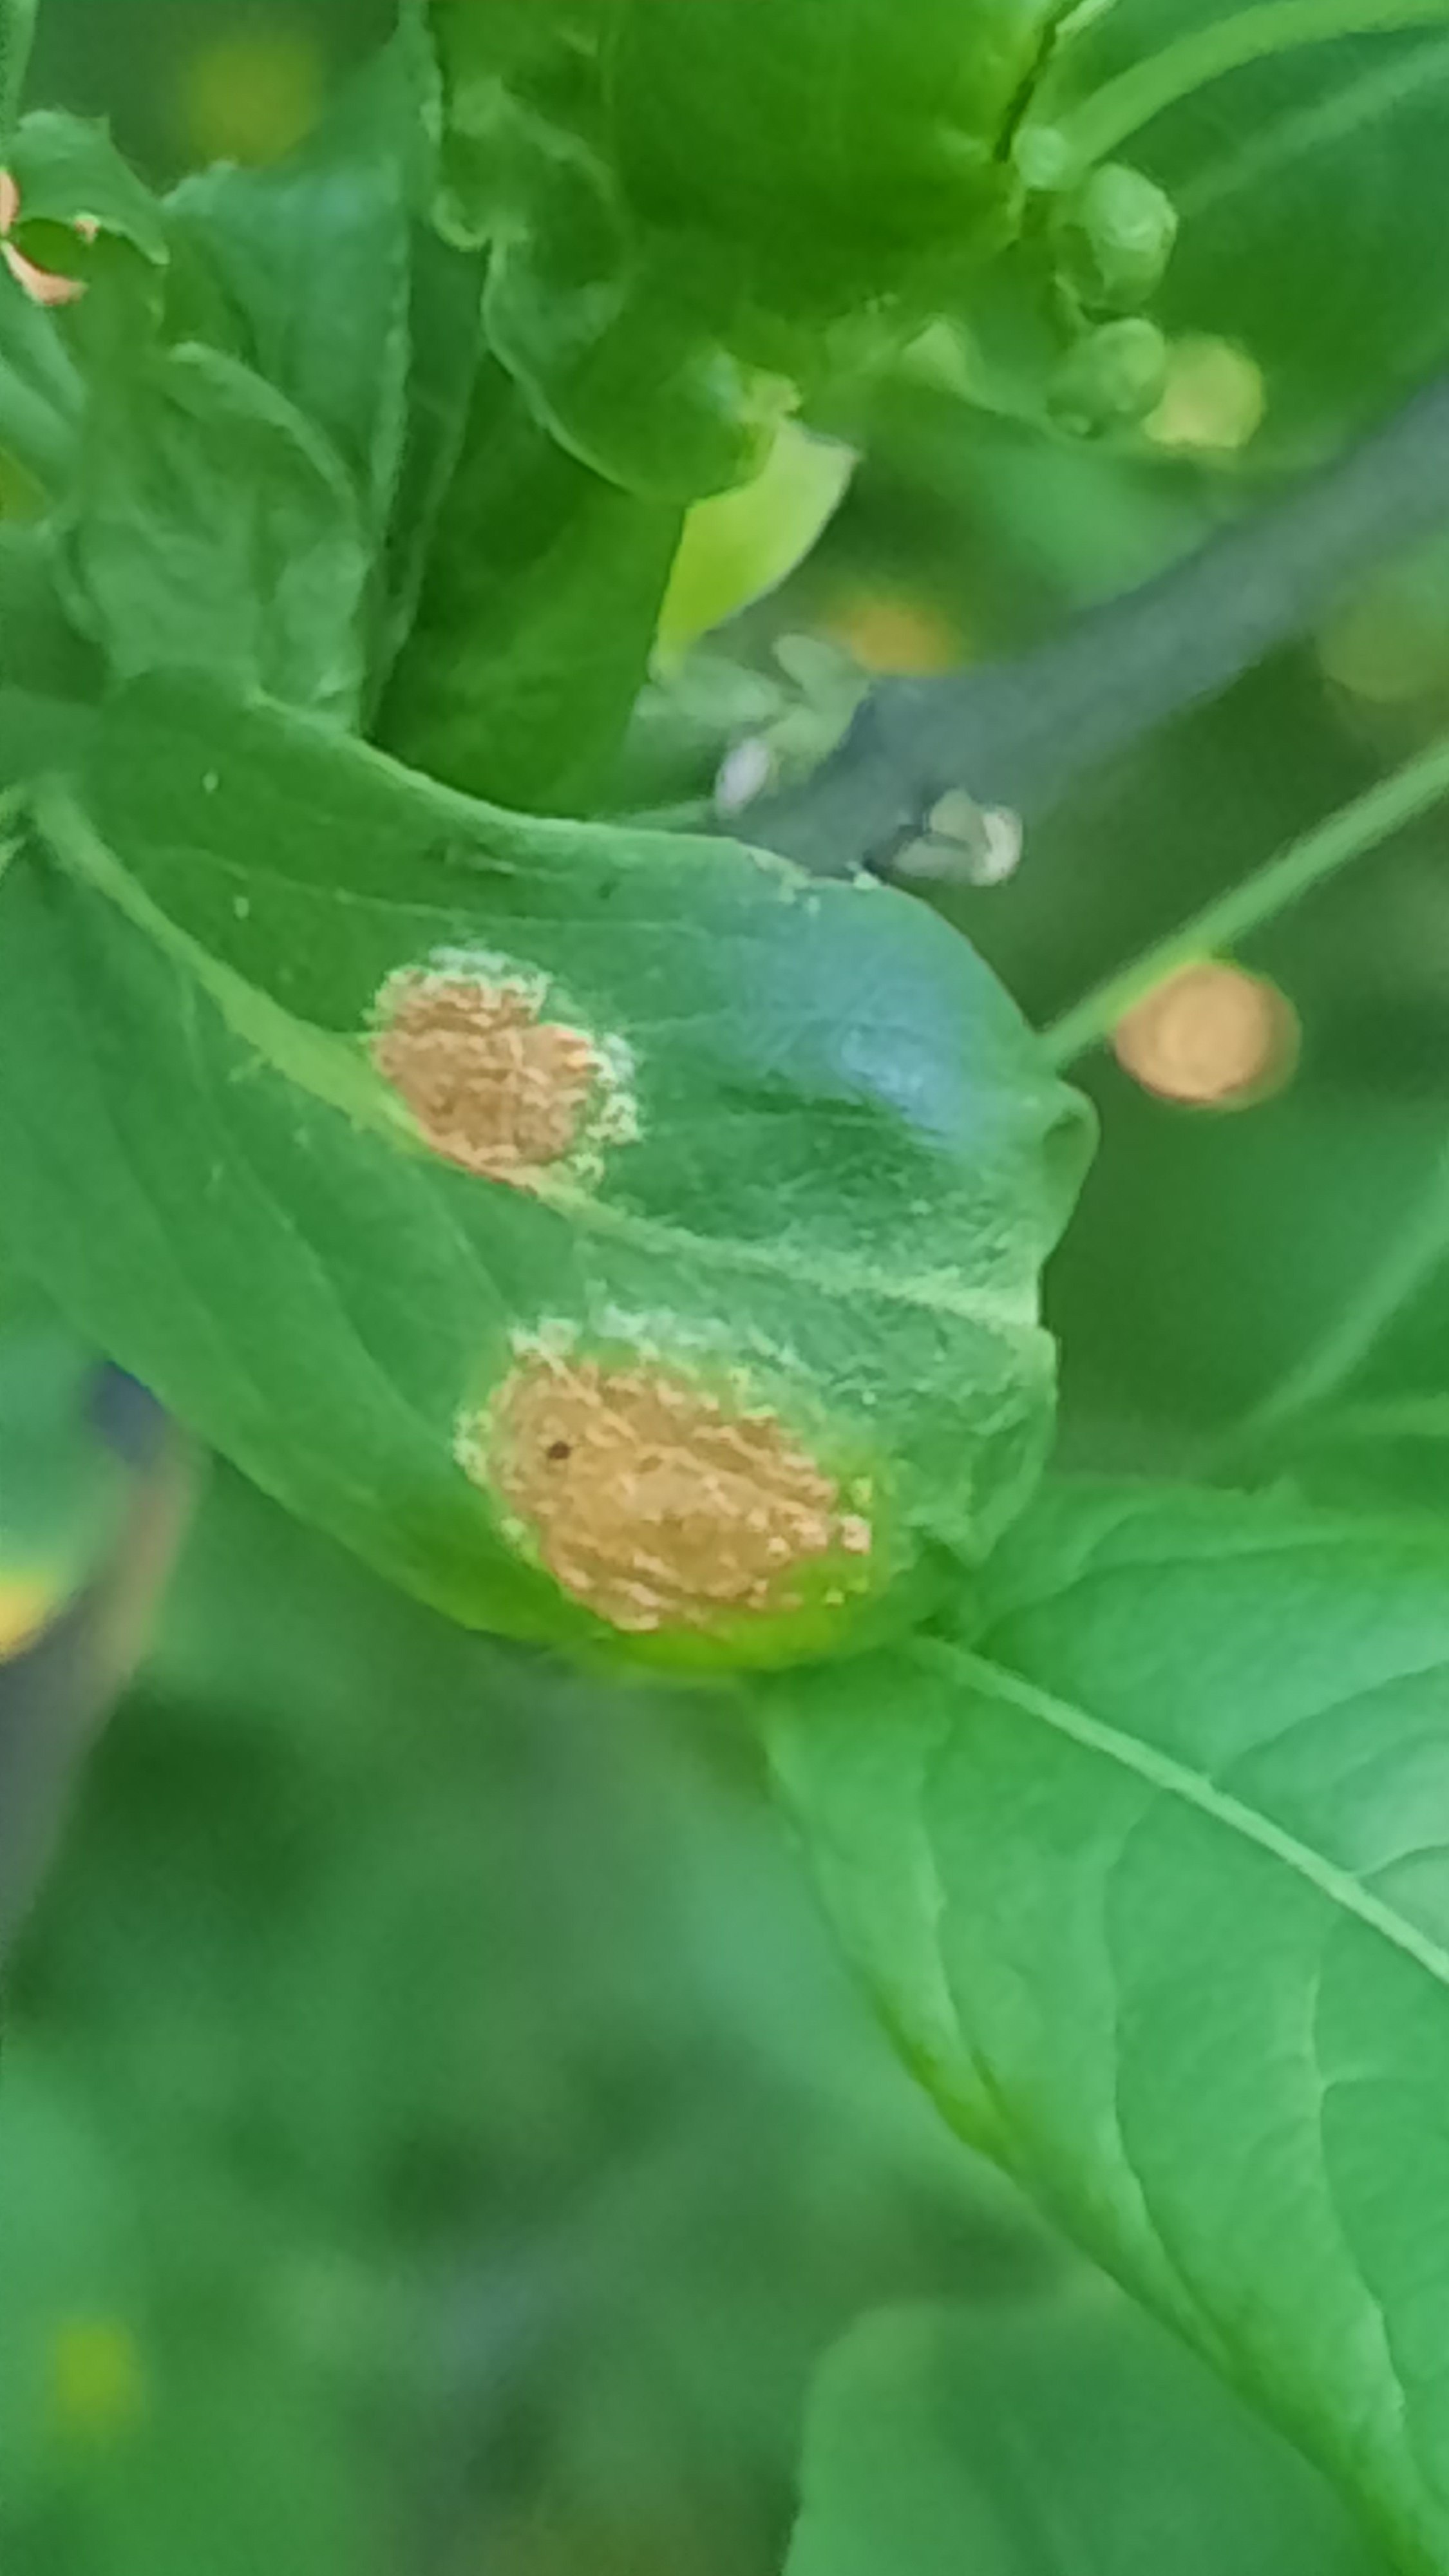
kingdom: Fungi
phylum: Basidiomycota
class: Pucciniomycetes
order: Pucciniales
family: Melampsoraceae
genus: Melampsora
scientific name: Melampsora epitea
